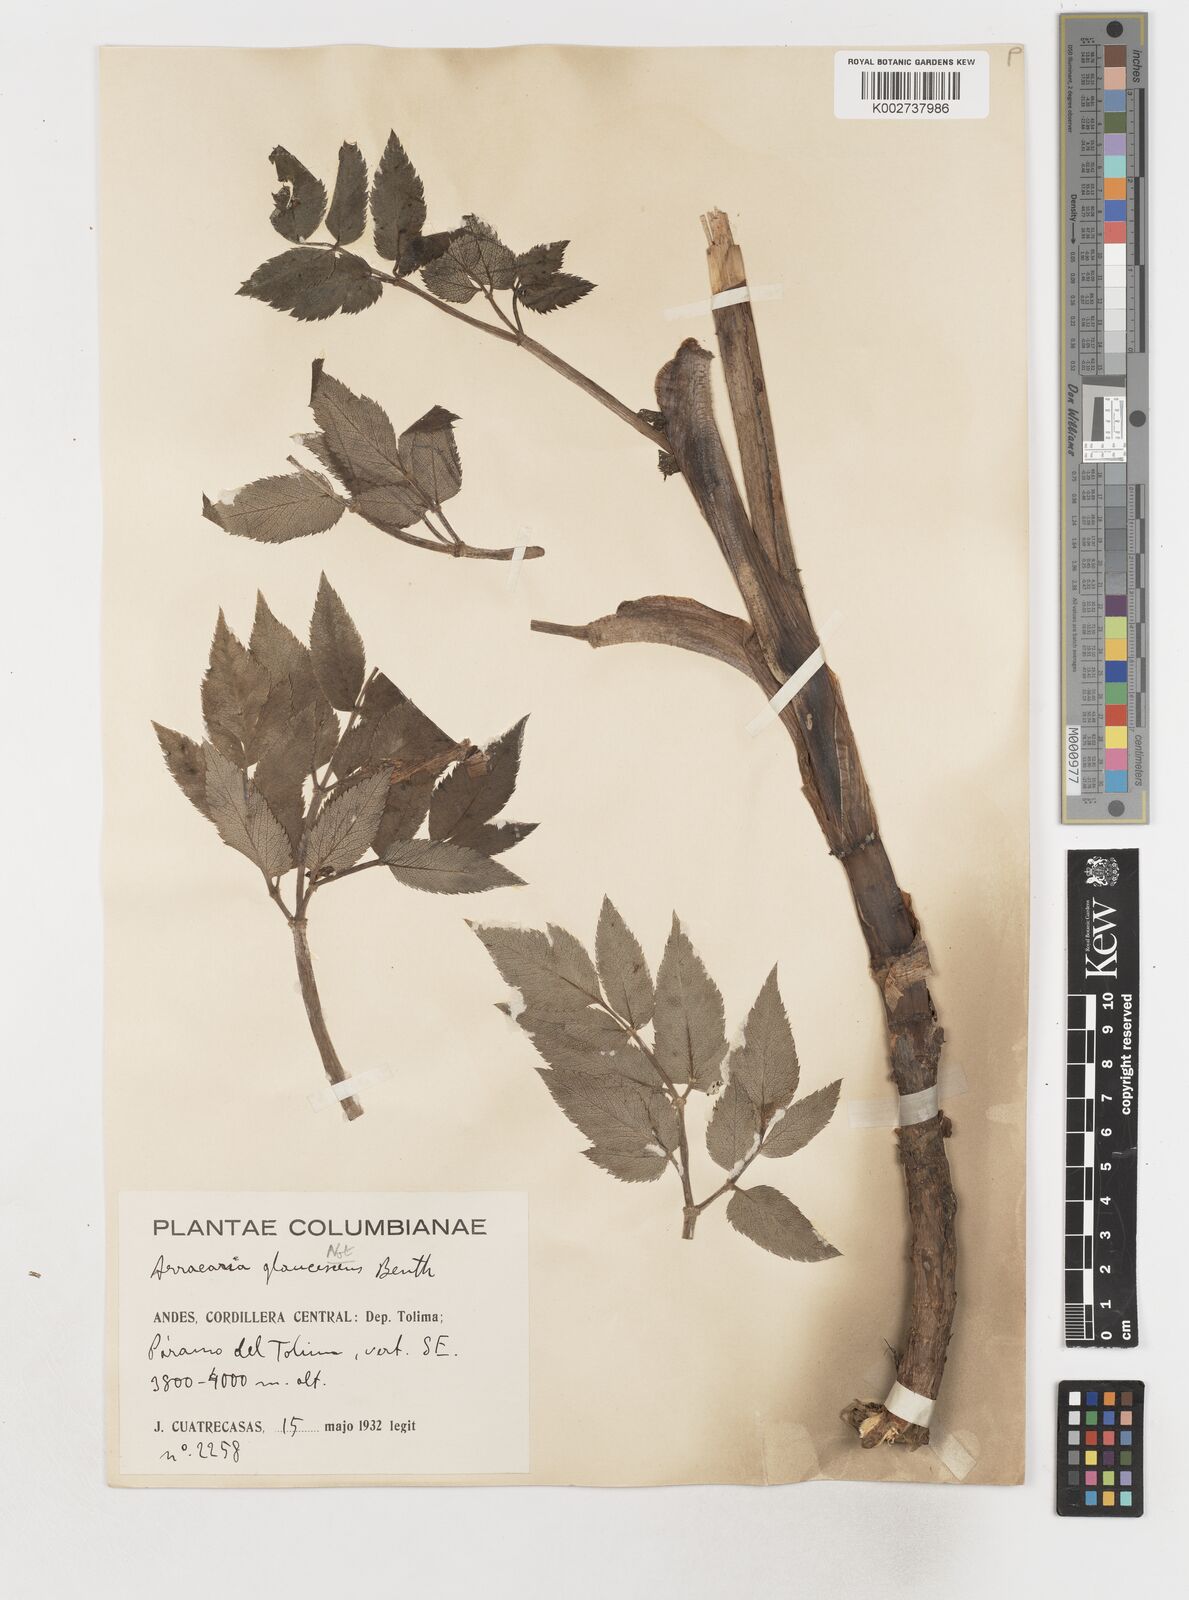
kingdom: Plantae
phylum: Tracheophyta
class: Magnoliopsida
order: Apiales
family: Apiaceae
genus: Myrrhidendron
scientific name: Myrrhidendron pennellii
